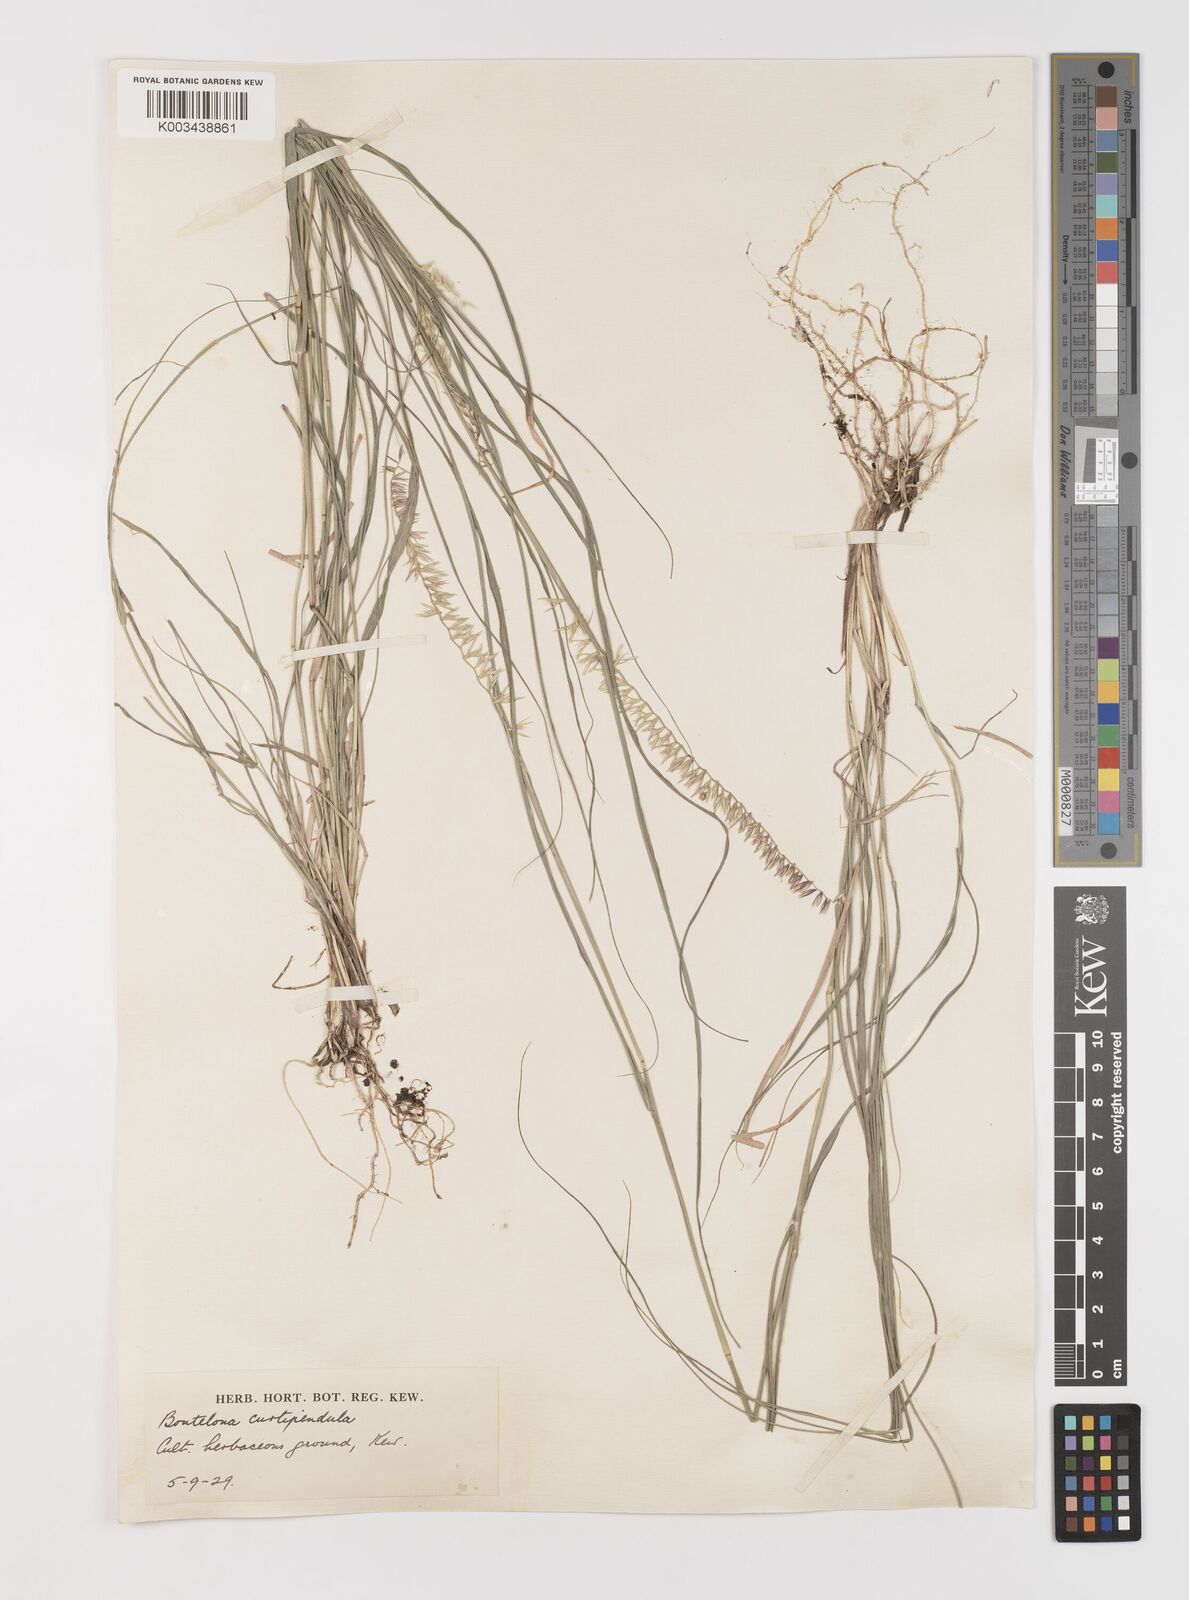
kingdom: Plantae
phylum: Tracheophyta
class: Liliopsida
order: Poales
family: Poaceae
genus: Bouteloua
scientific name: Bouteloua curtipendula
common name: Side-oats grama
